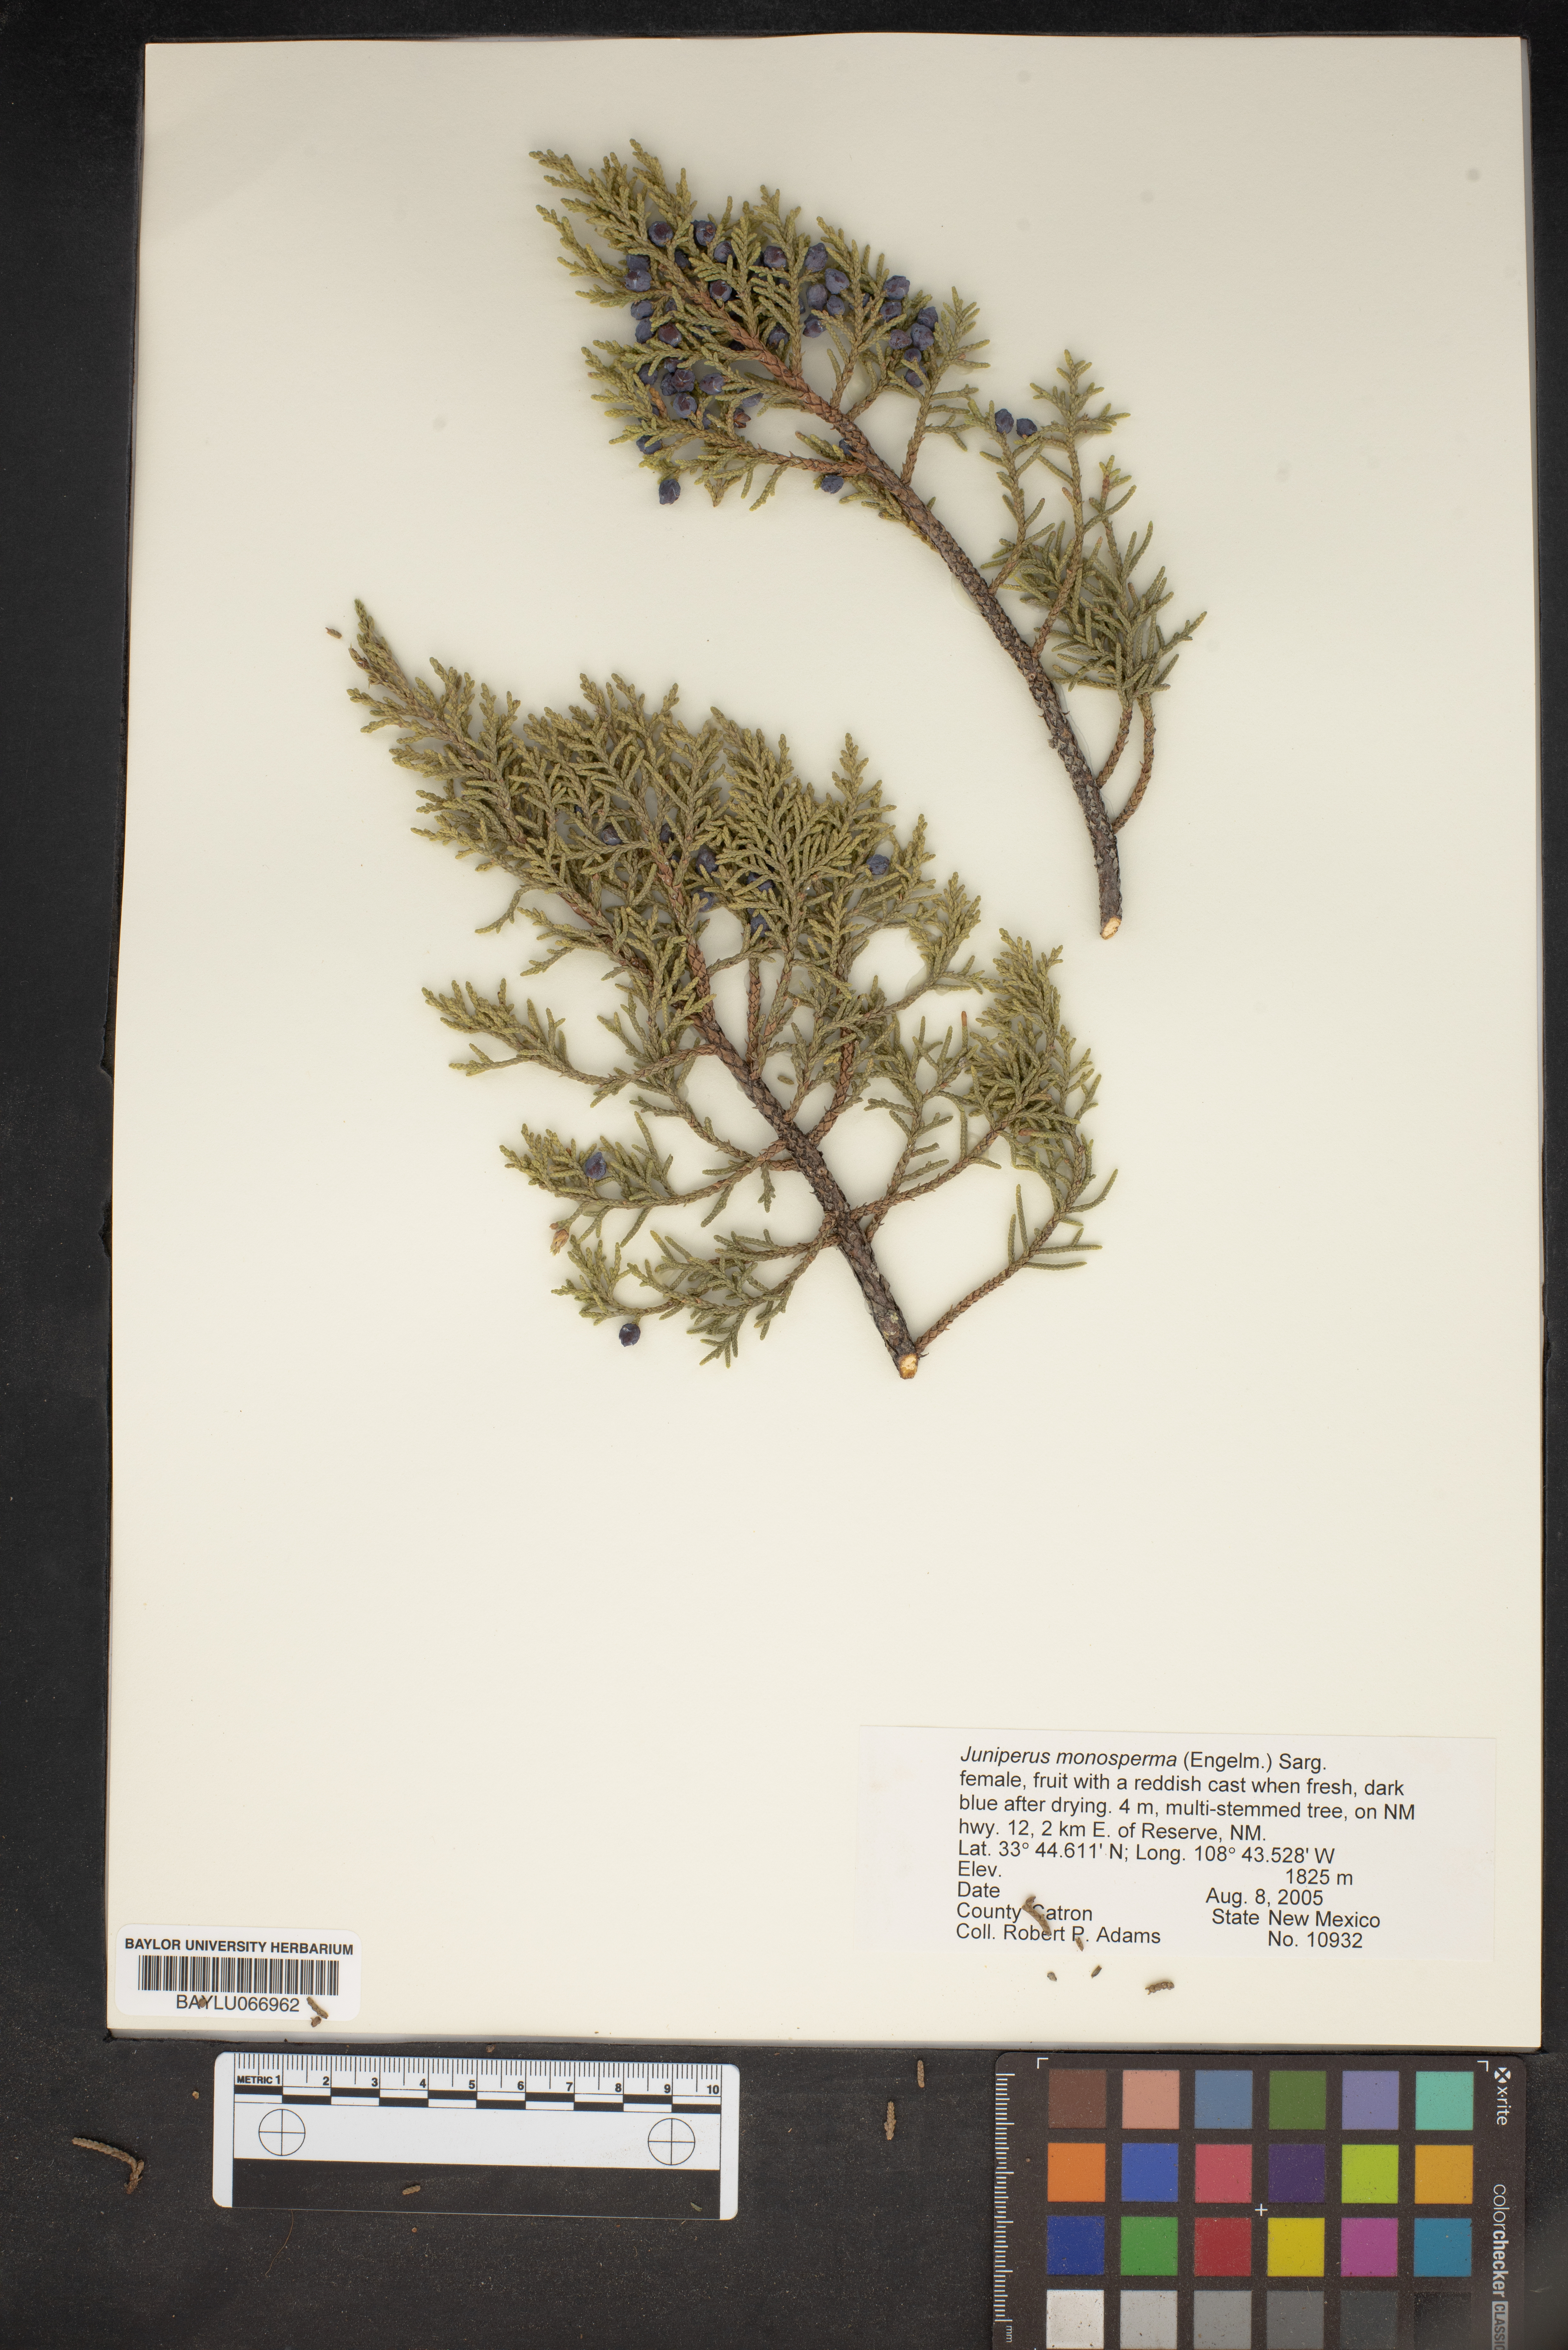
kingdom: Plantae
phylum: Tracheophyta
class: Pinopsida
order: Pinales
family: Cupressaceae
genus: Juniperus
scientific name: Juniperus monosperma
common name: One-seed juniper
